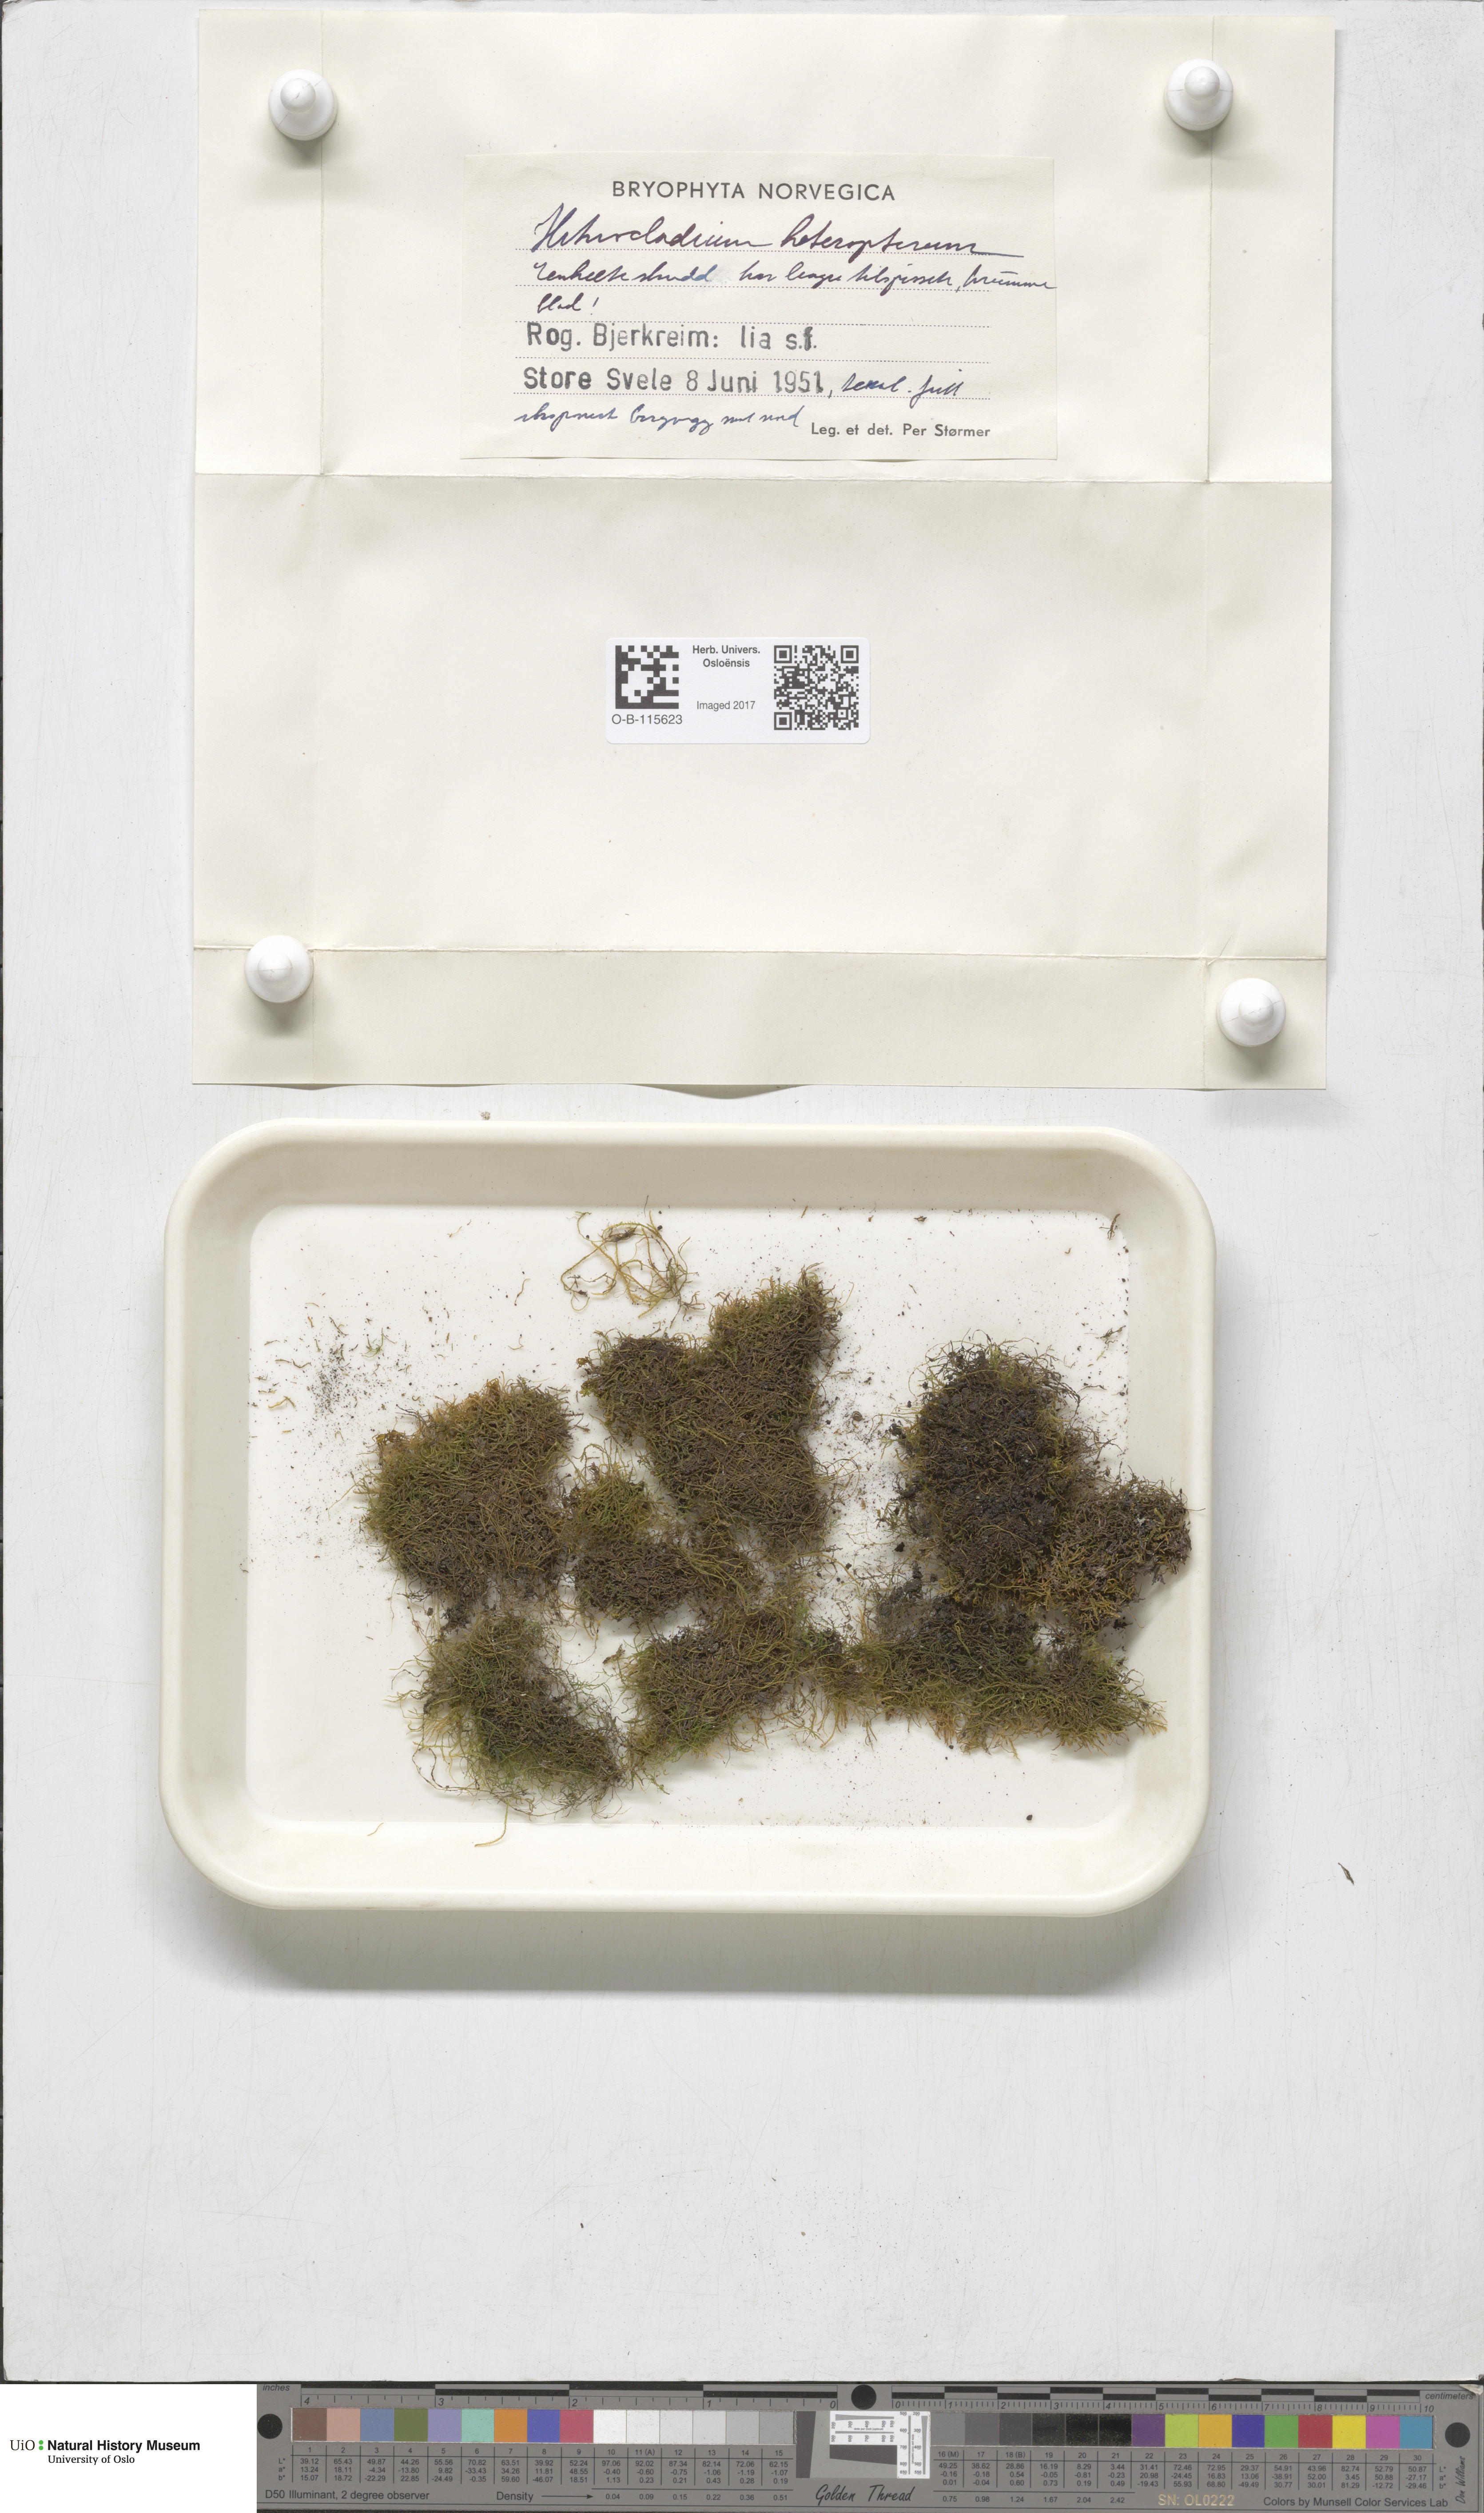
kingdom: Plantae
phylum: Bryophyta
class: Bryopsida
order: Hypnales
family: Lembophyllaceae
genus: Heterocladium
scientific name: Heterocladium heteropterum
